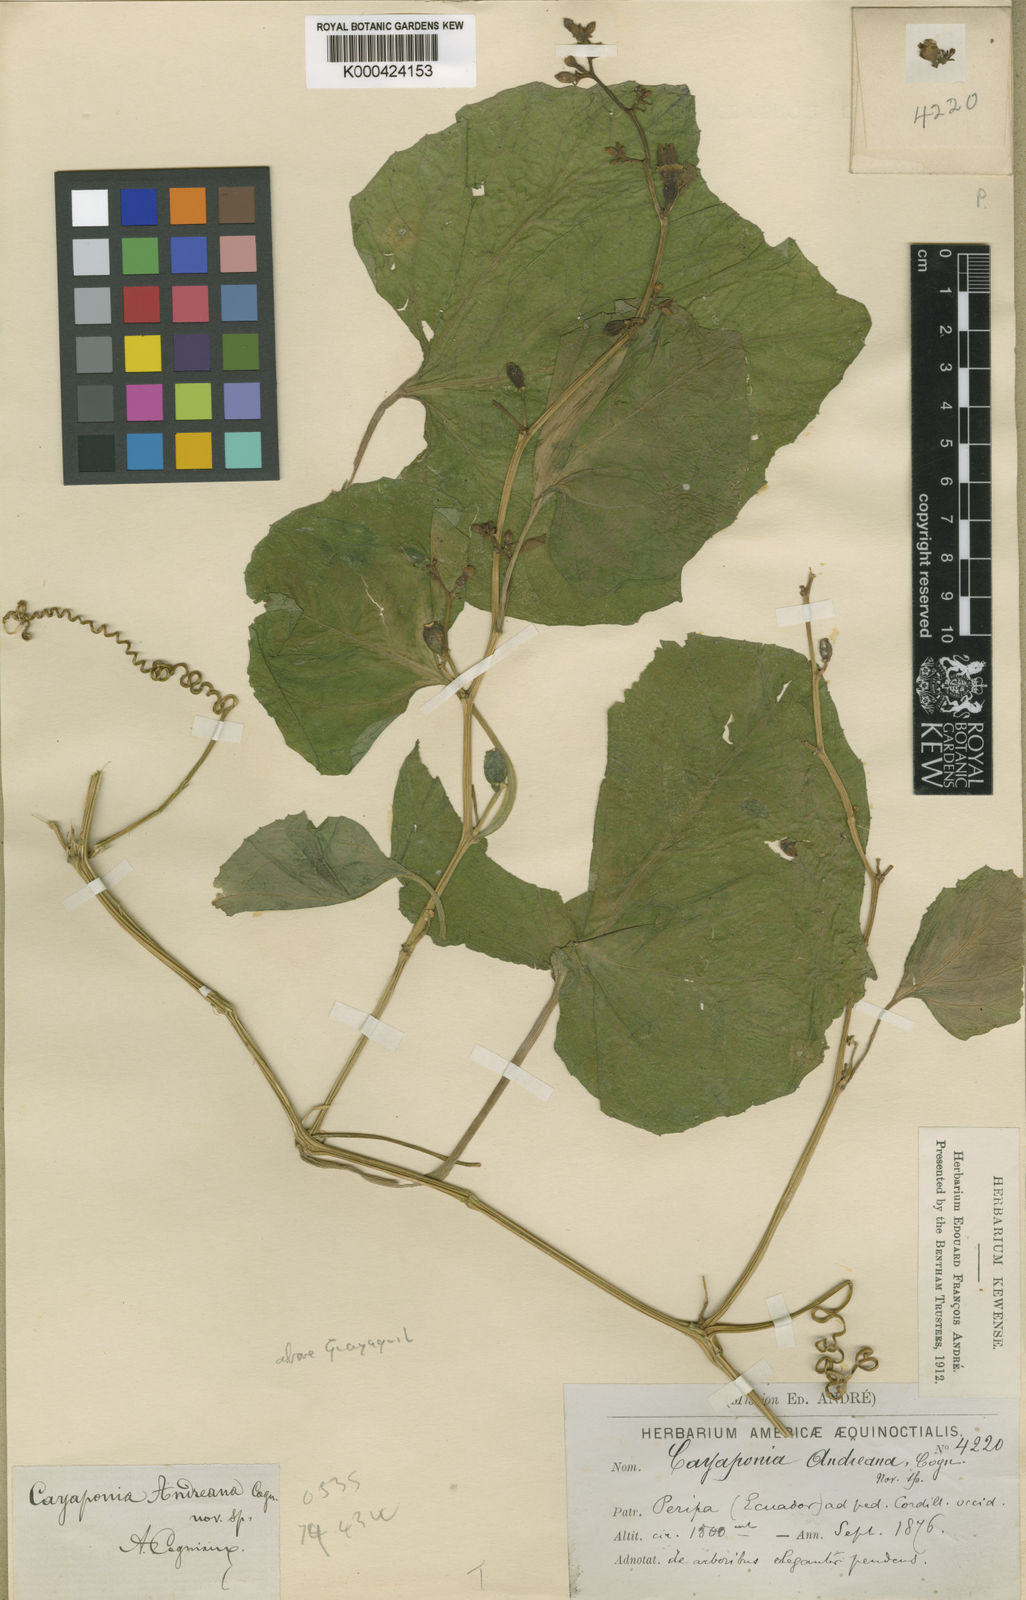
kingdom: Plantae
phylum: Tracheophyta
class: Magnoliopsida
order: Cucurbitales
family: Cucurbitaceae
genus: Cayaponia
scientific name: Cayaponia cruegeri
